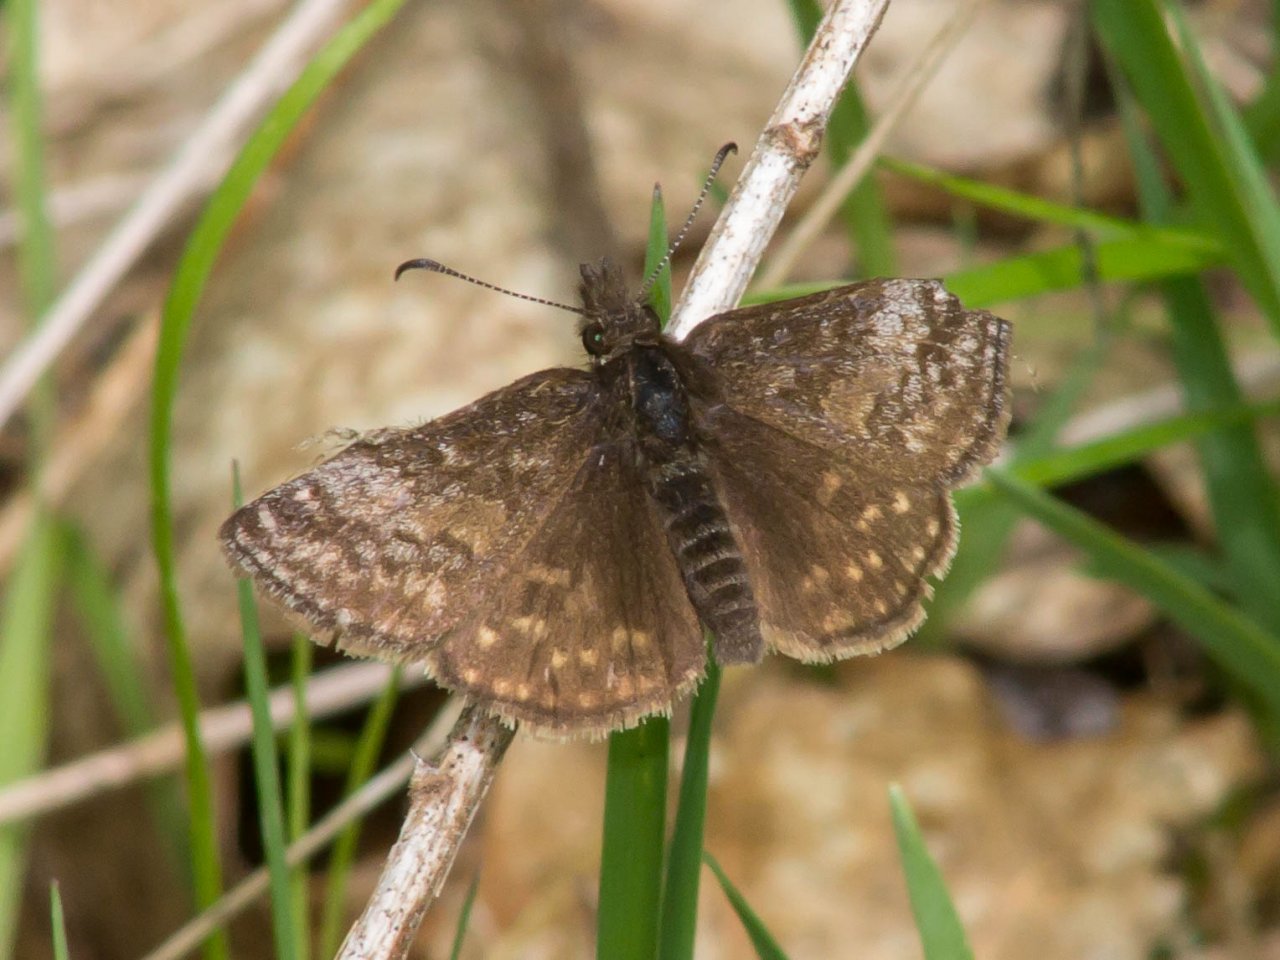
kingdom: Animalia
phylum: Arthropoda
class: Insecta
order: Lepidoptera
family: Hesperiidae
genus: Erynnis
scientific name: Erynnis icelus
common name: Dreamy Duskywing
